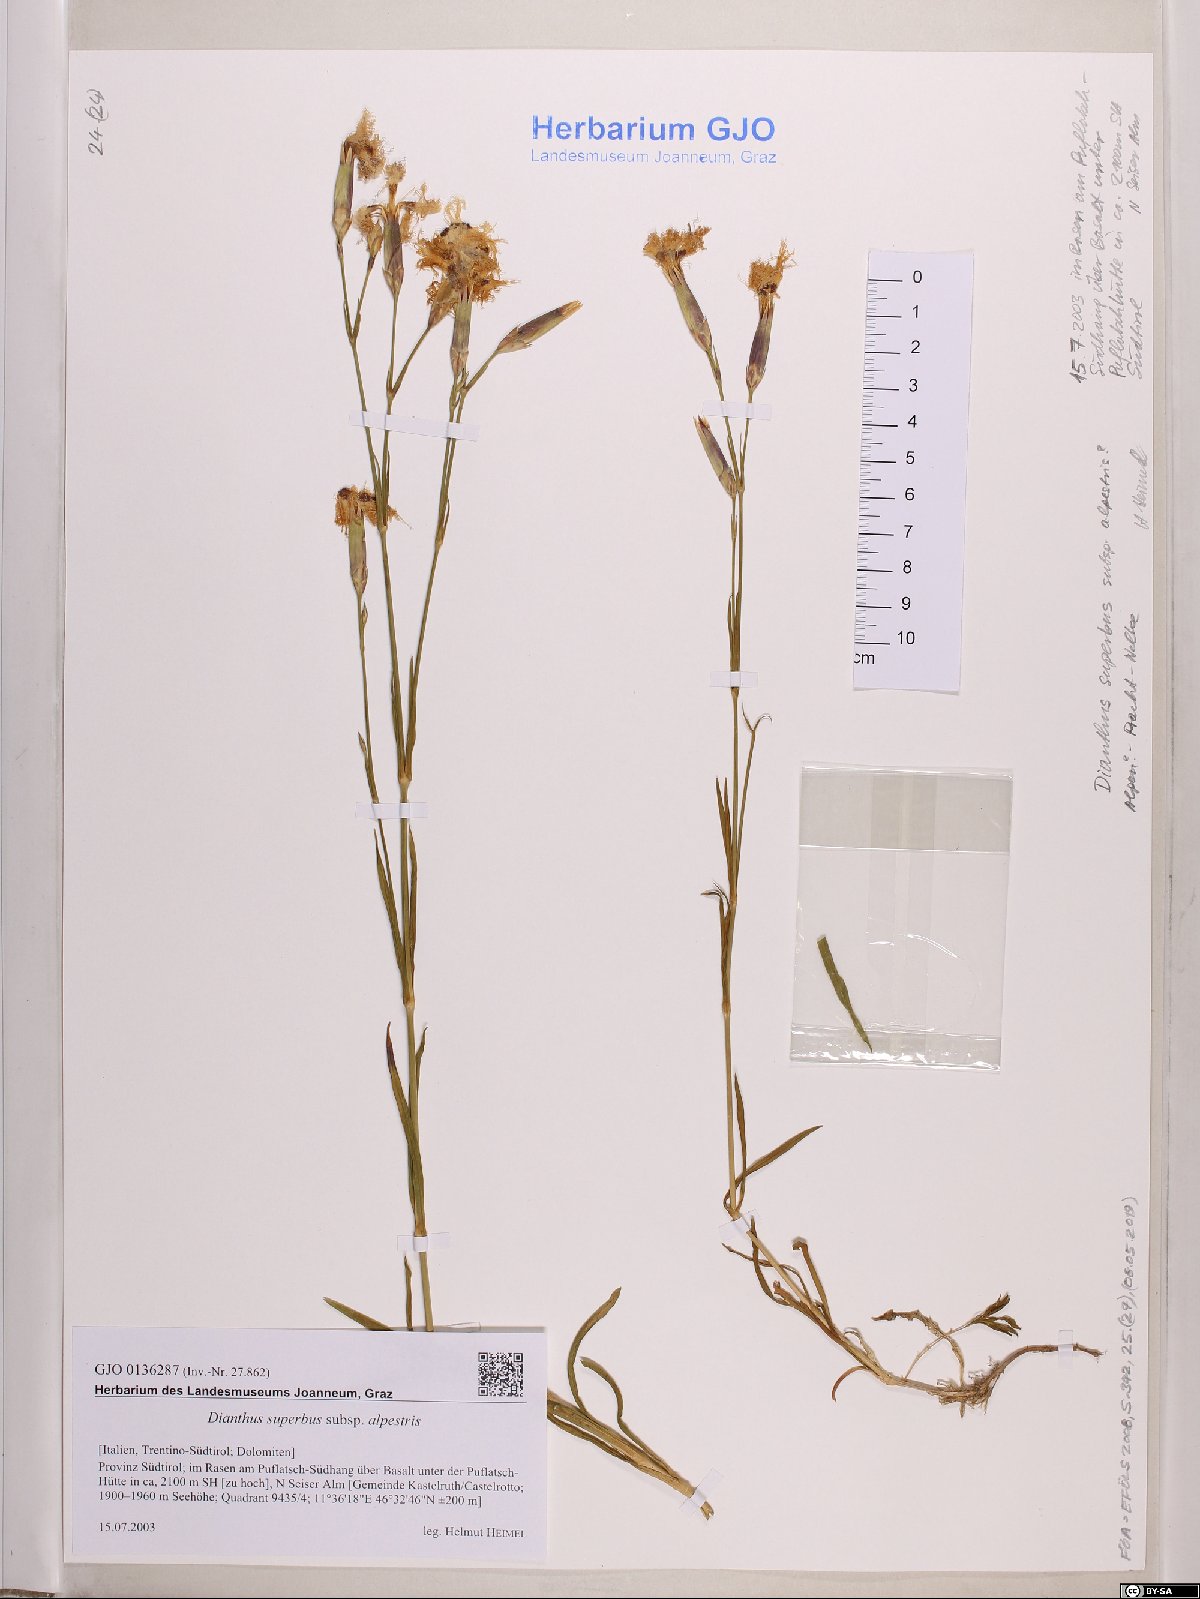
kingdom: Plantae
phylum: Tracheophyta
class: Magnoliopsida
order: Caryophyllales
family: Caryophyllaceae
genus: Dianthus
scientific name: Dianthus superbus
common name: Fringed pink
